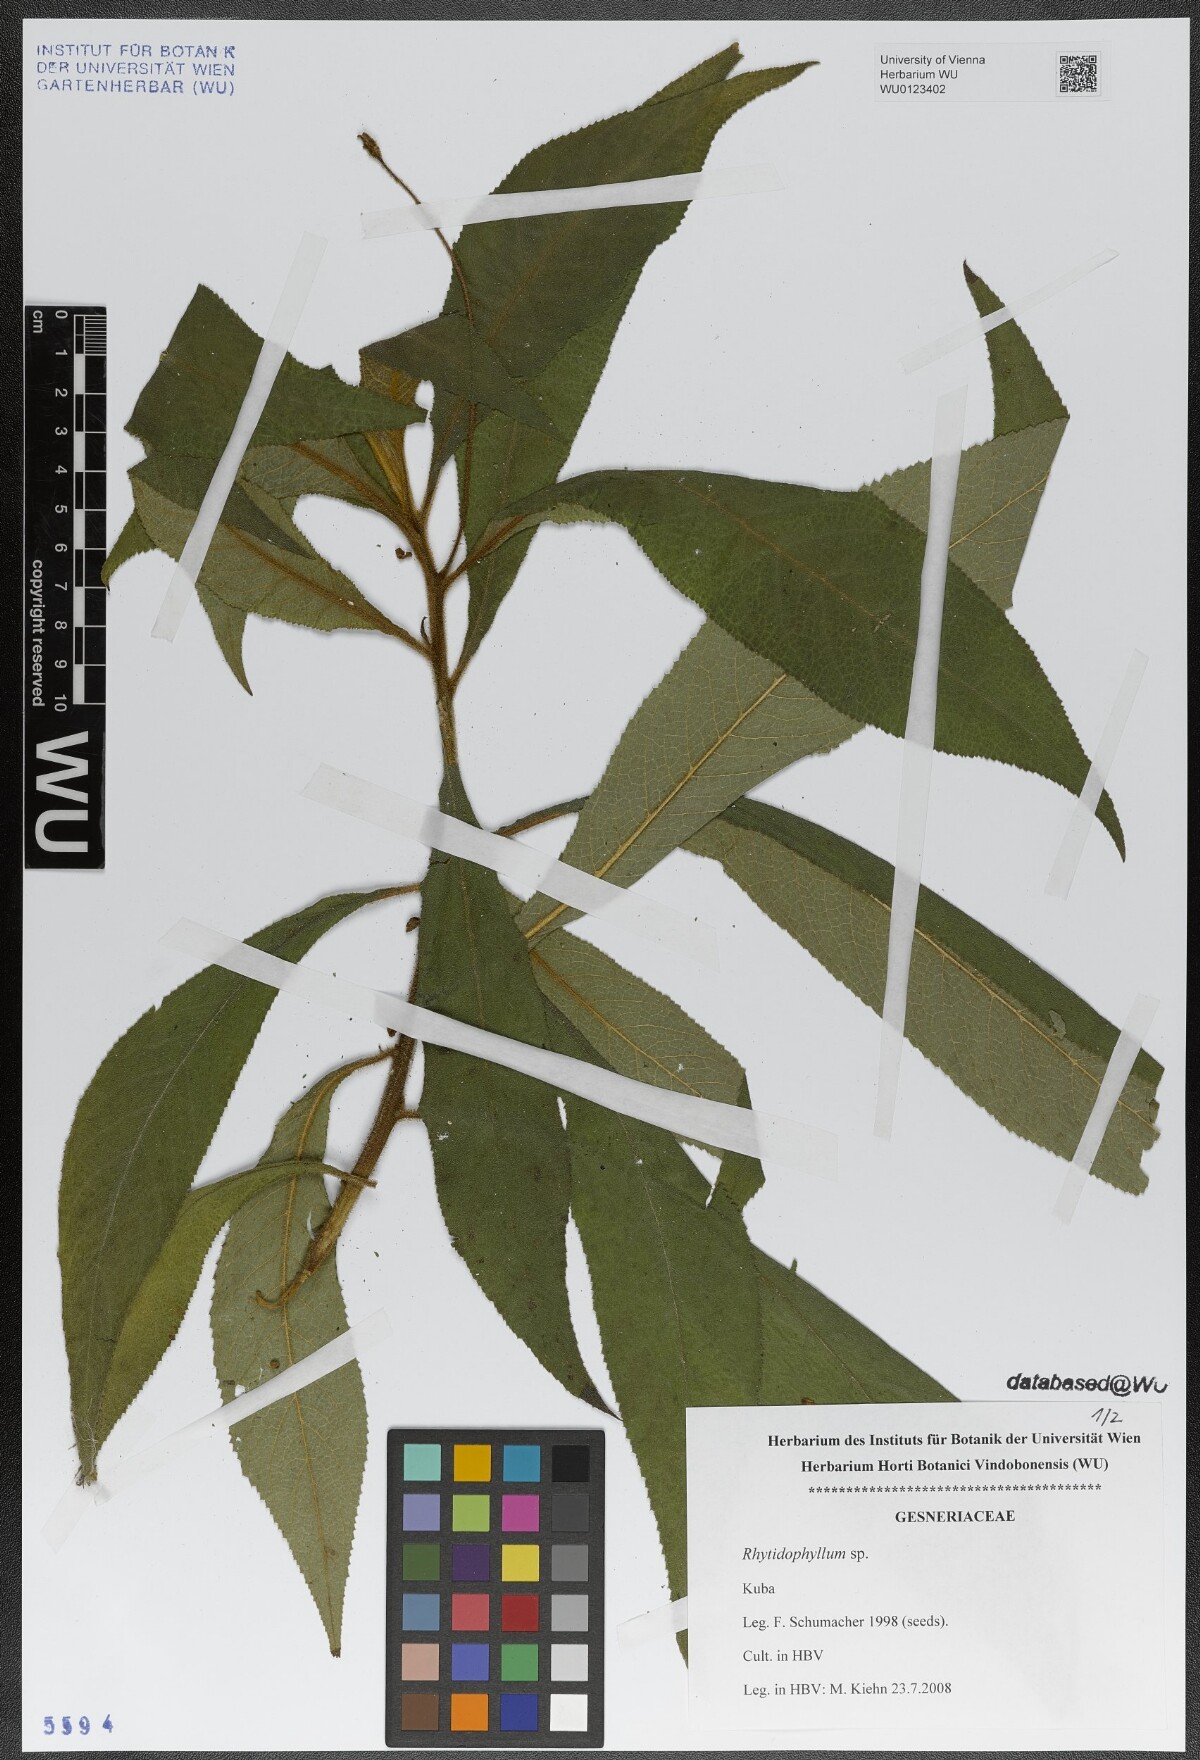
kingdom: Plantae
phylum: Tracheophyta
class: Magnoliopsida
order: Lamiales
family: Gesneriaceae
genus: Rhytidophyllum
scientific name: Rhytidophyllum
